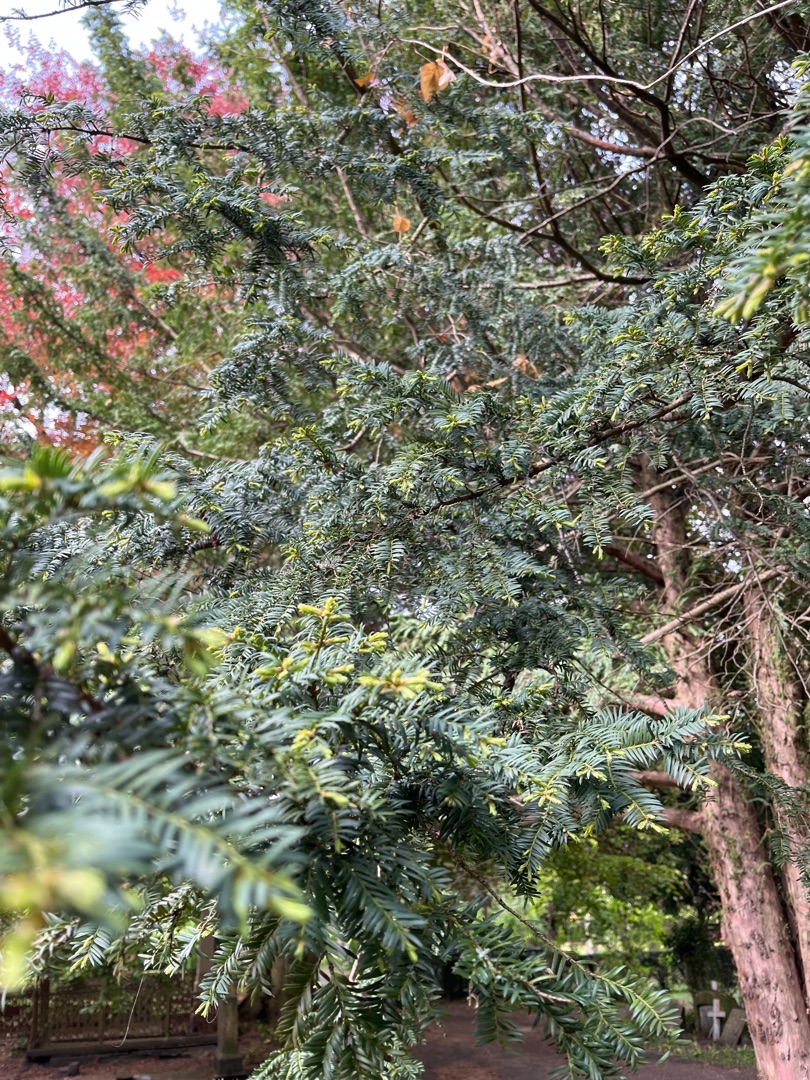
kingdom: Plantae
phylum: Tracheophyta
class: Pinopsida
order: Pinales
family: Taxaceae
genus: Taxus
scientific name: Taxus baccata
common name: Almindelig taks
